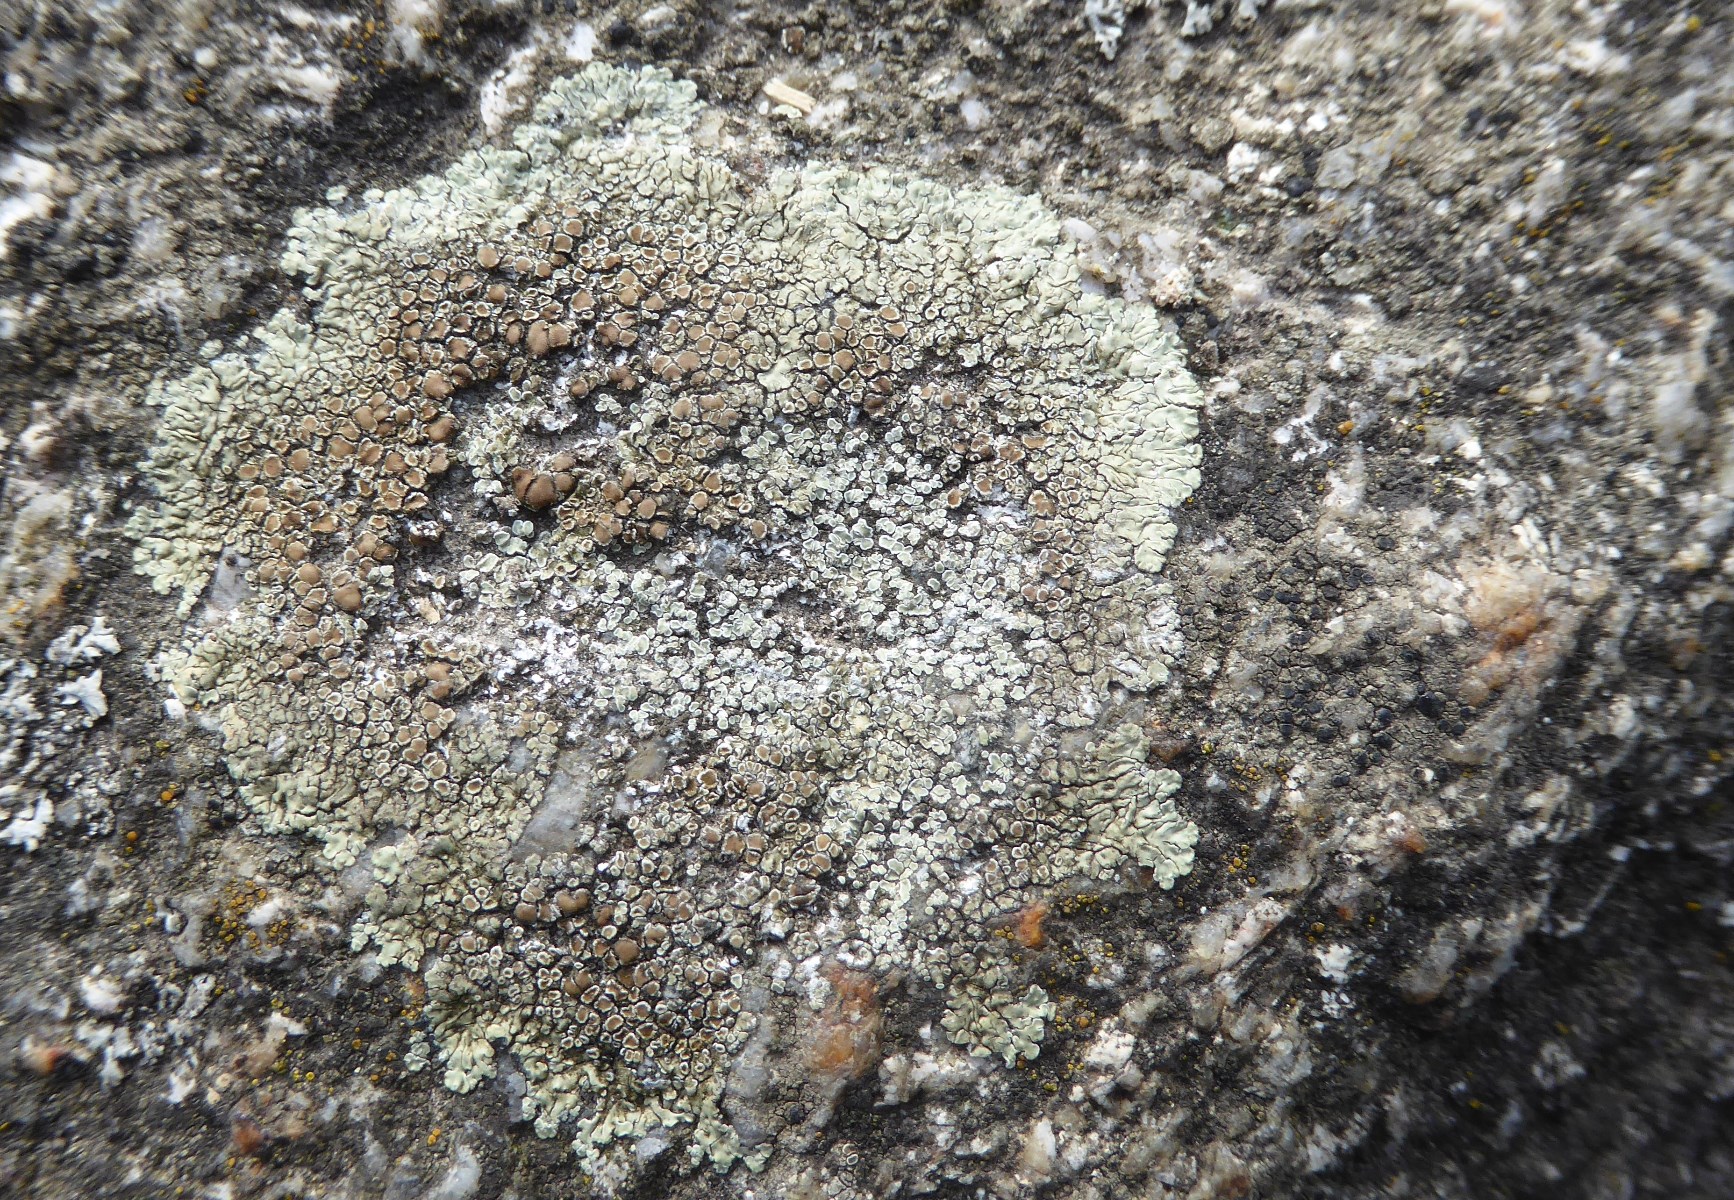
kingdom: Fungi
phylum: Ascomycota
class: Lecanoromycetes
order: Lecanorales
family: Lecanoraceae
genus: Protoparmeliopsis
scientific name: Protoparmeliopsis muralis
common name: randfliget kantskivelav
